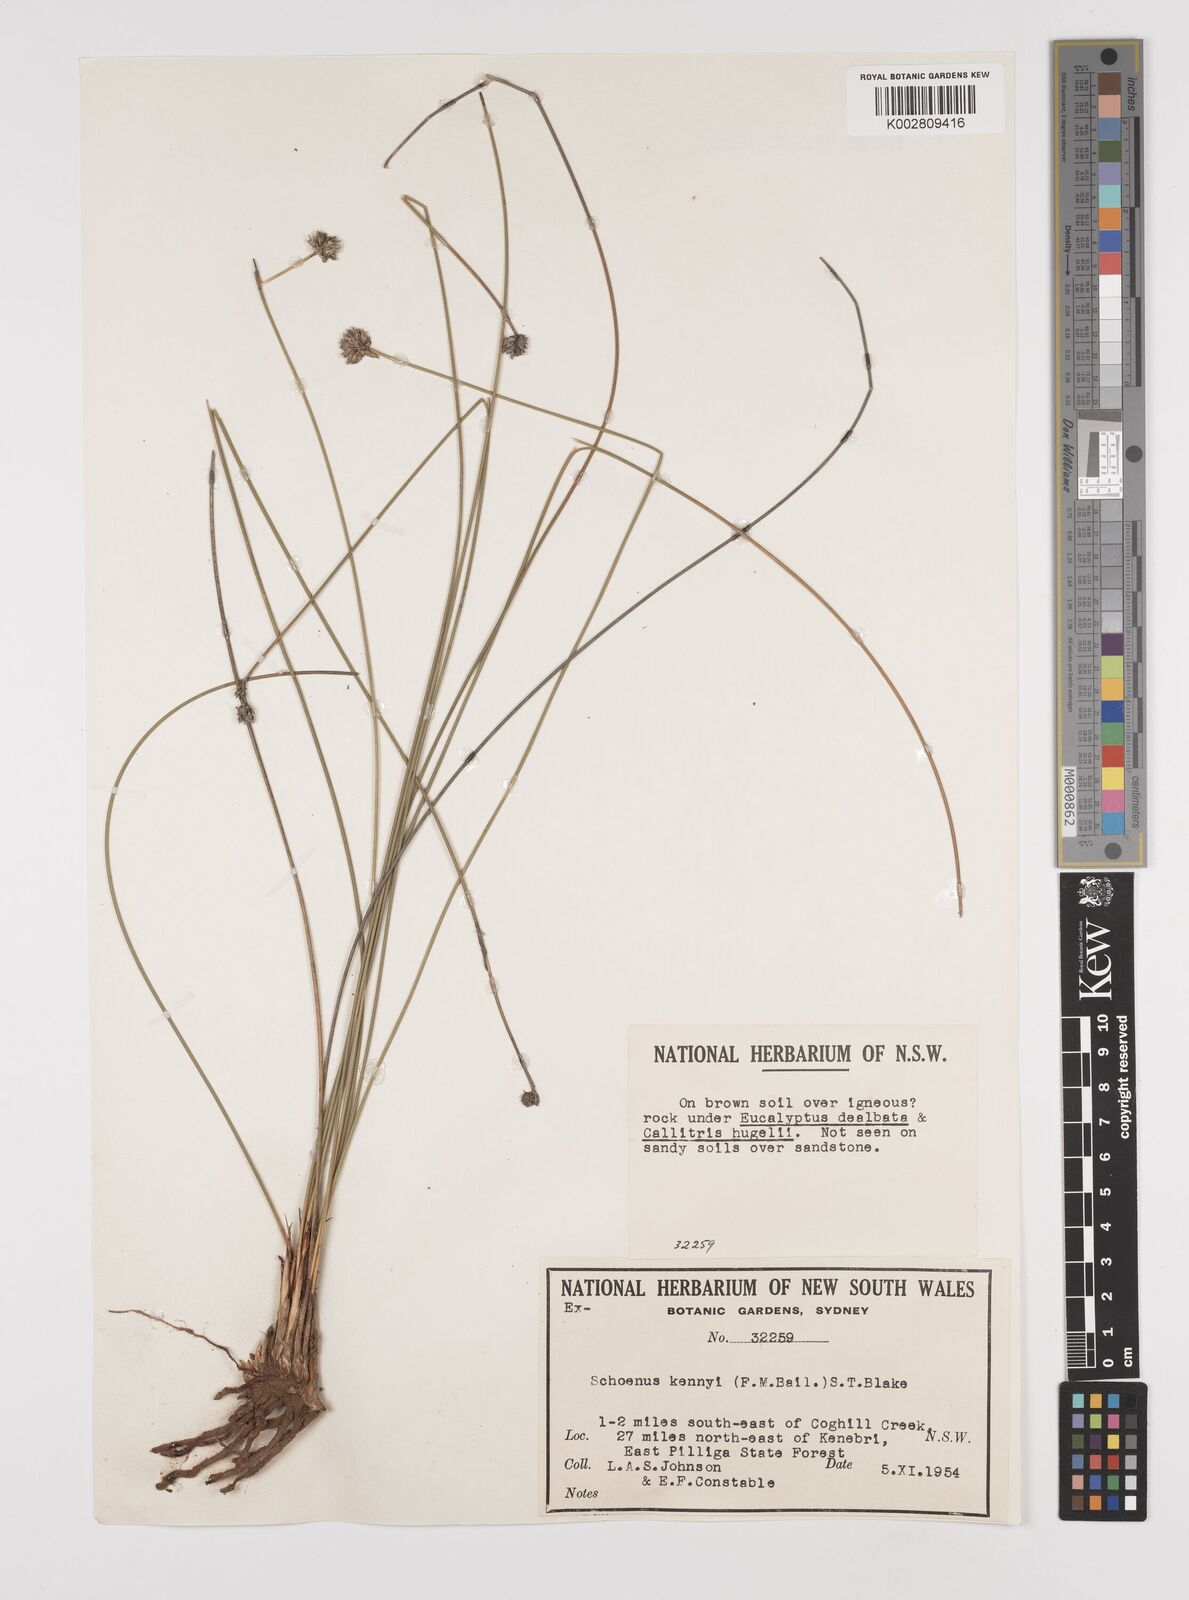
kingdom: Plantae
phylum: Tracheophyta
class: Liliopsida
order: Poales
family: Cyperaceae
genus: Schoenus
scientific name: Schoenus kennyi
